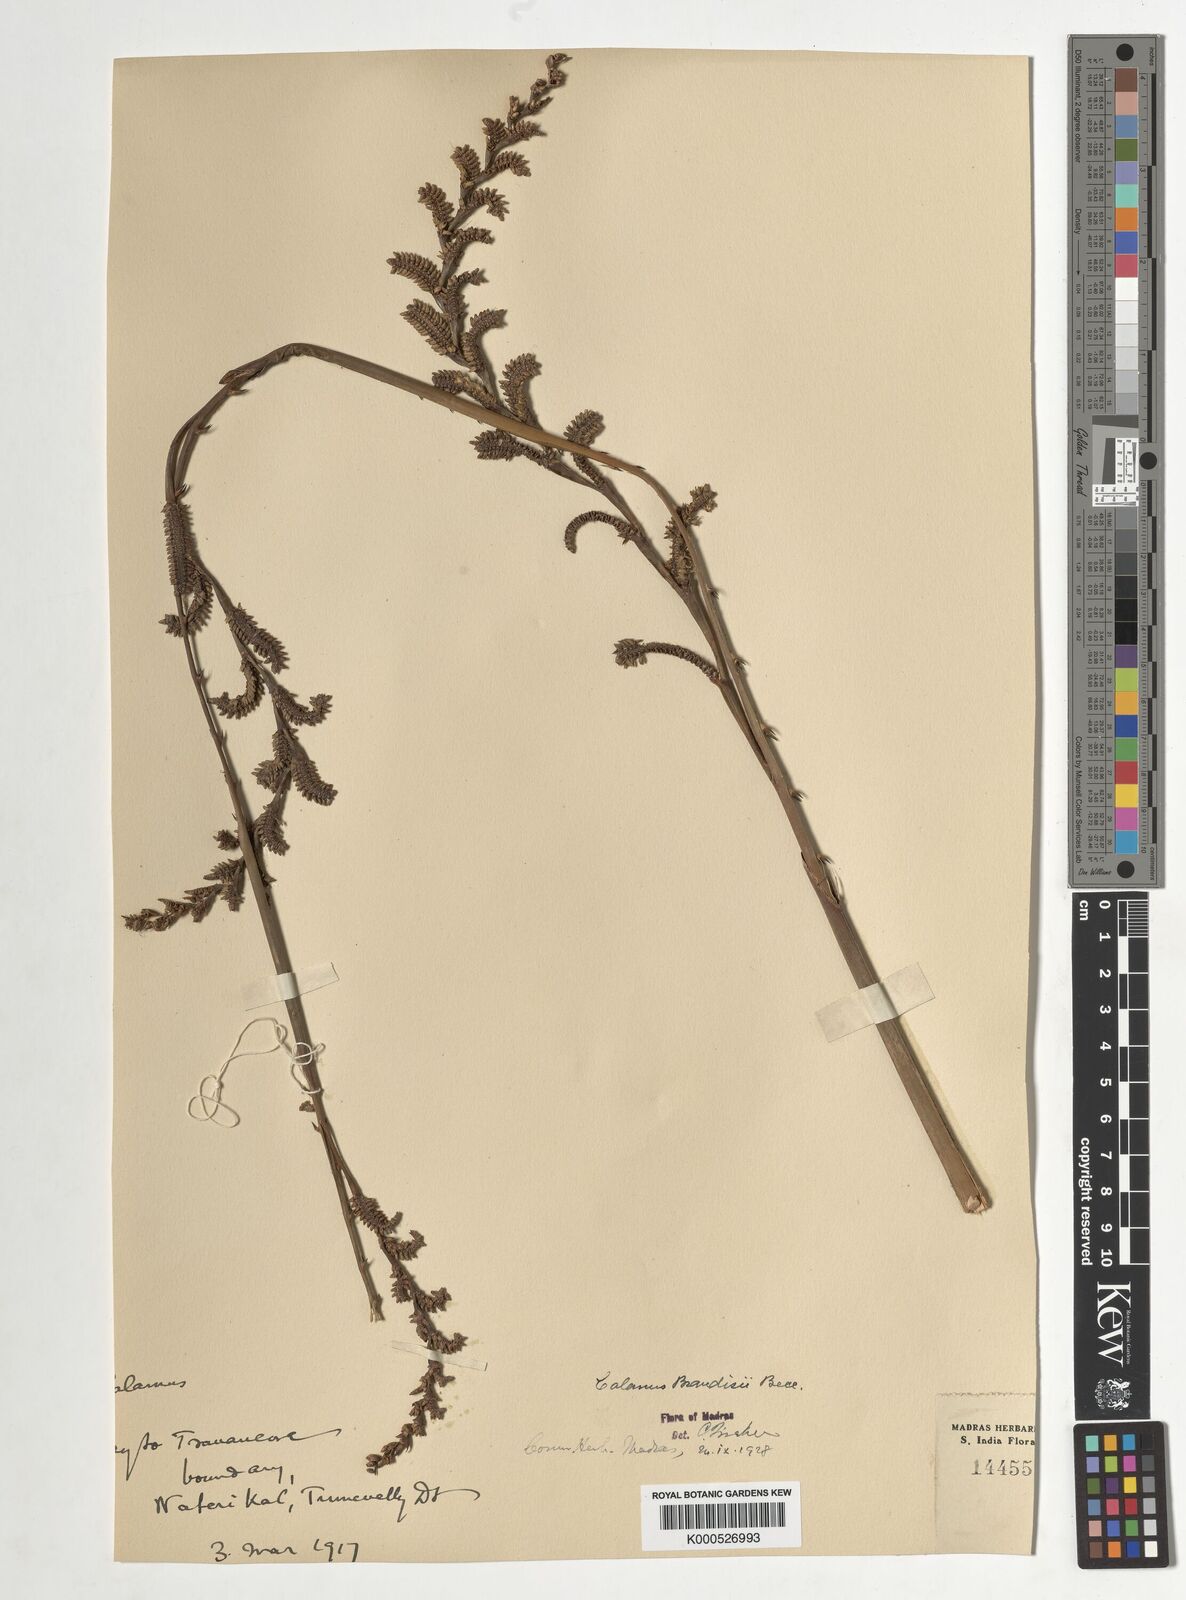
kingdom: Plantae
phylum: Tracheophyta
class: Liliopsida
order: Arecales
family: Arecaceae
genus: Calamus
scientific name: Calamus brandisii
